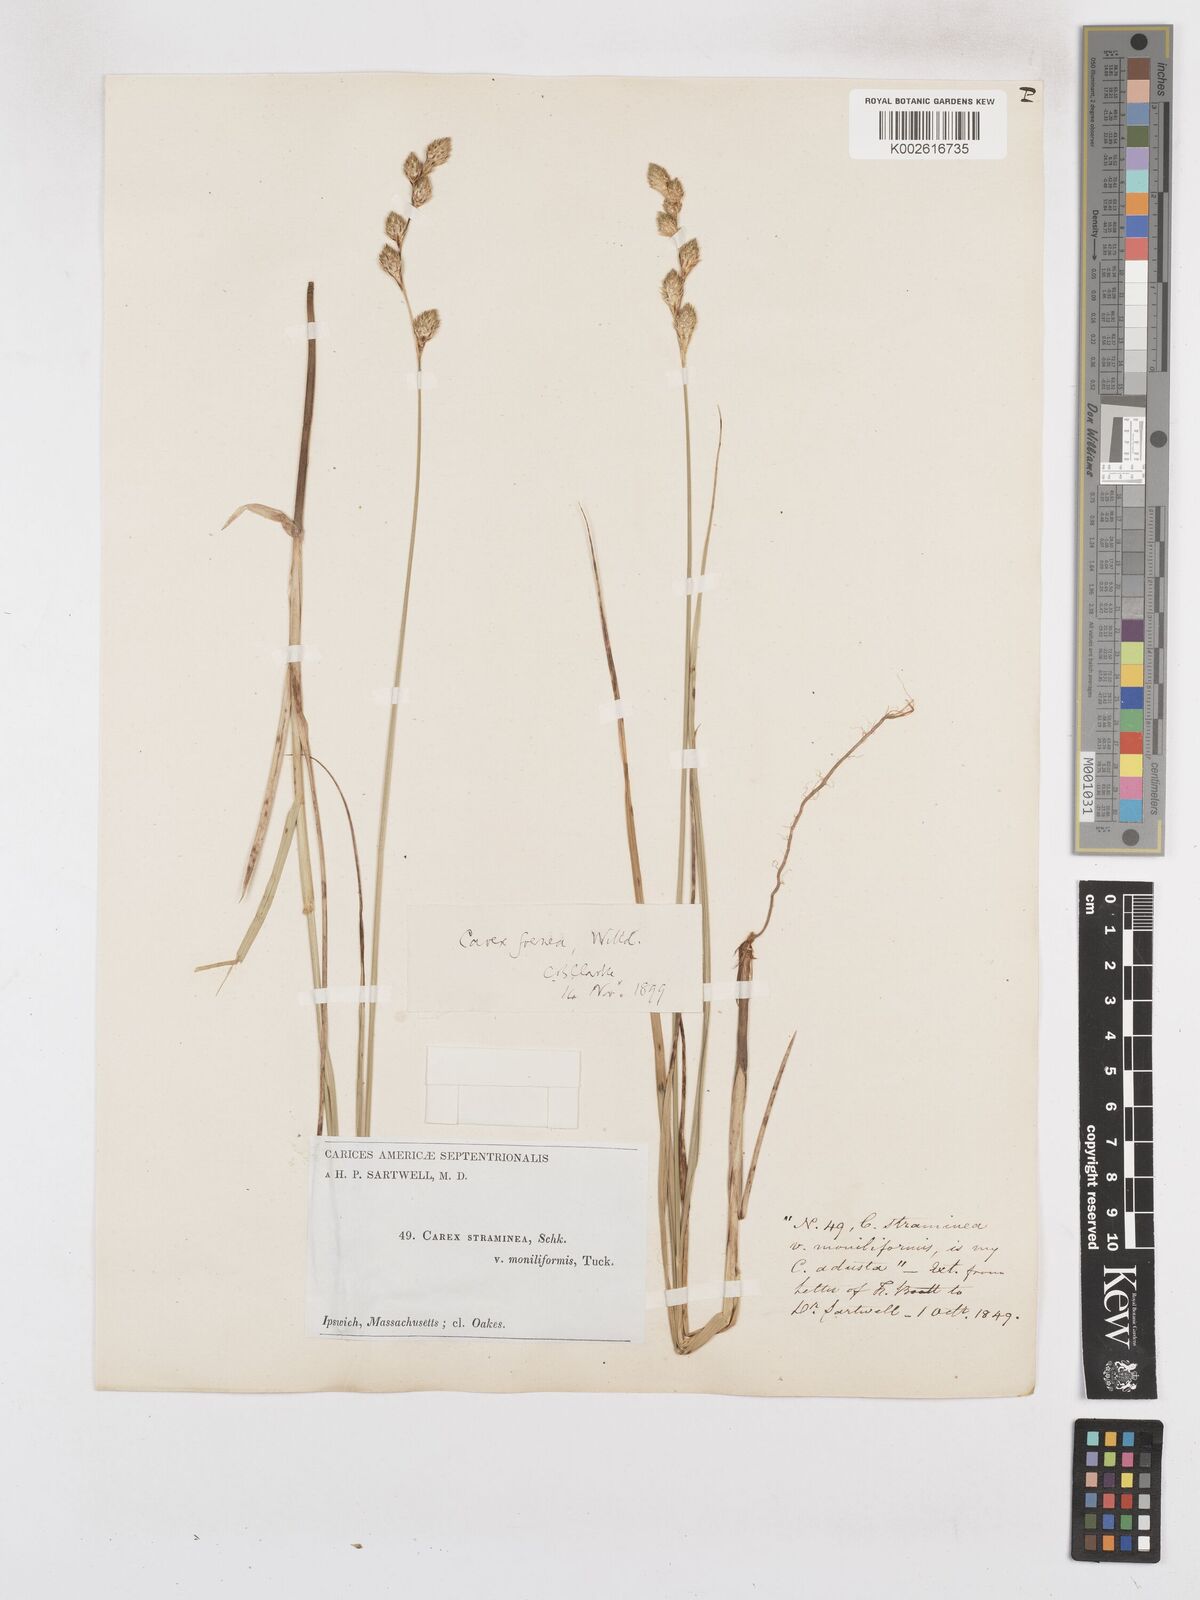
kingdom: Plantae
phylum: Tracheophyta
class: Liliopsida
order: Poales
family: Cyperaceae
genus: Carex
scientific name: Carex argyrantha
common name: Silvery-flowered sedge
